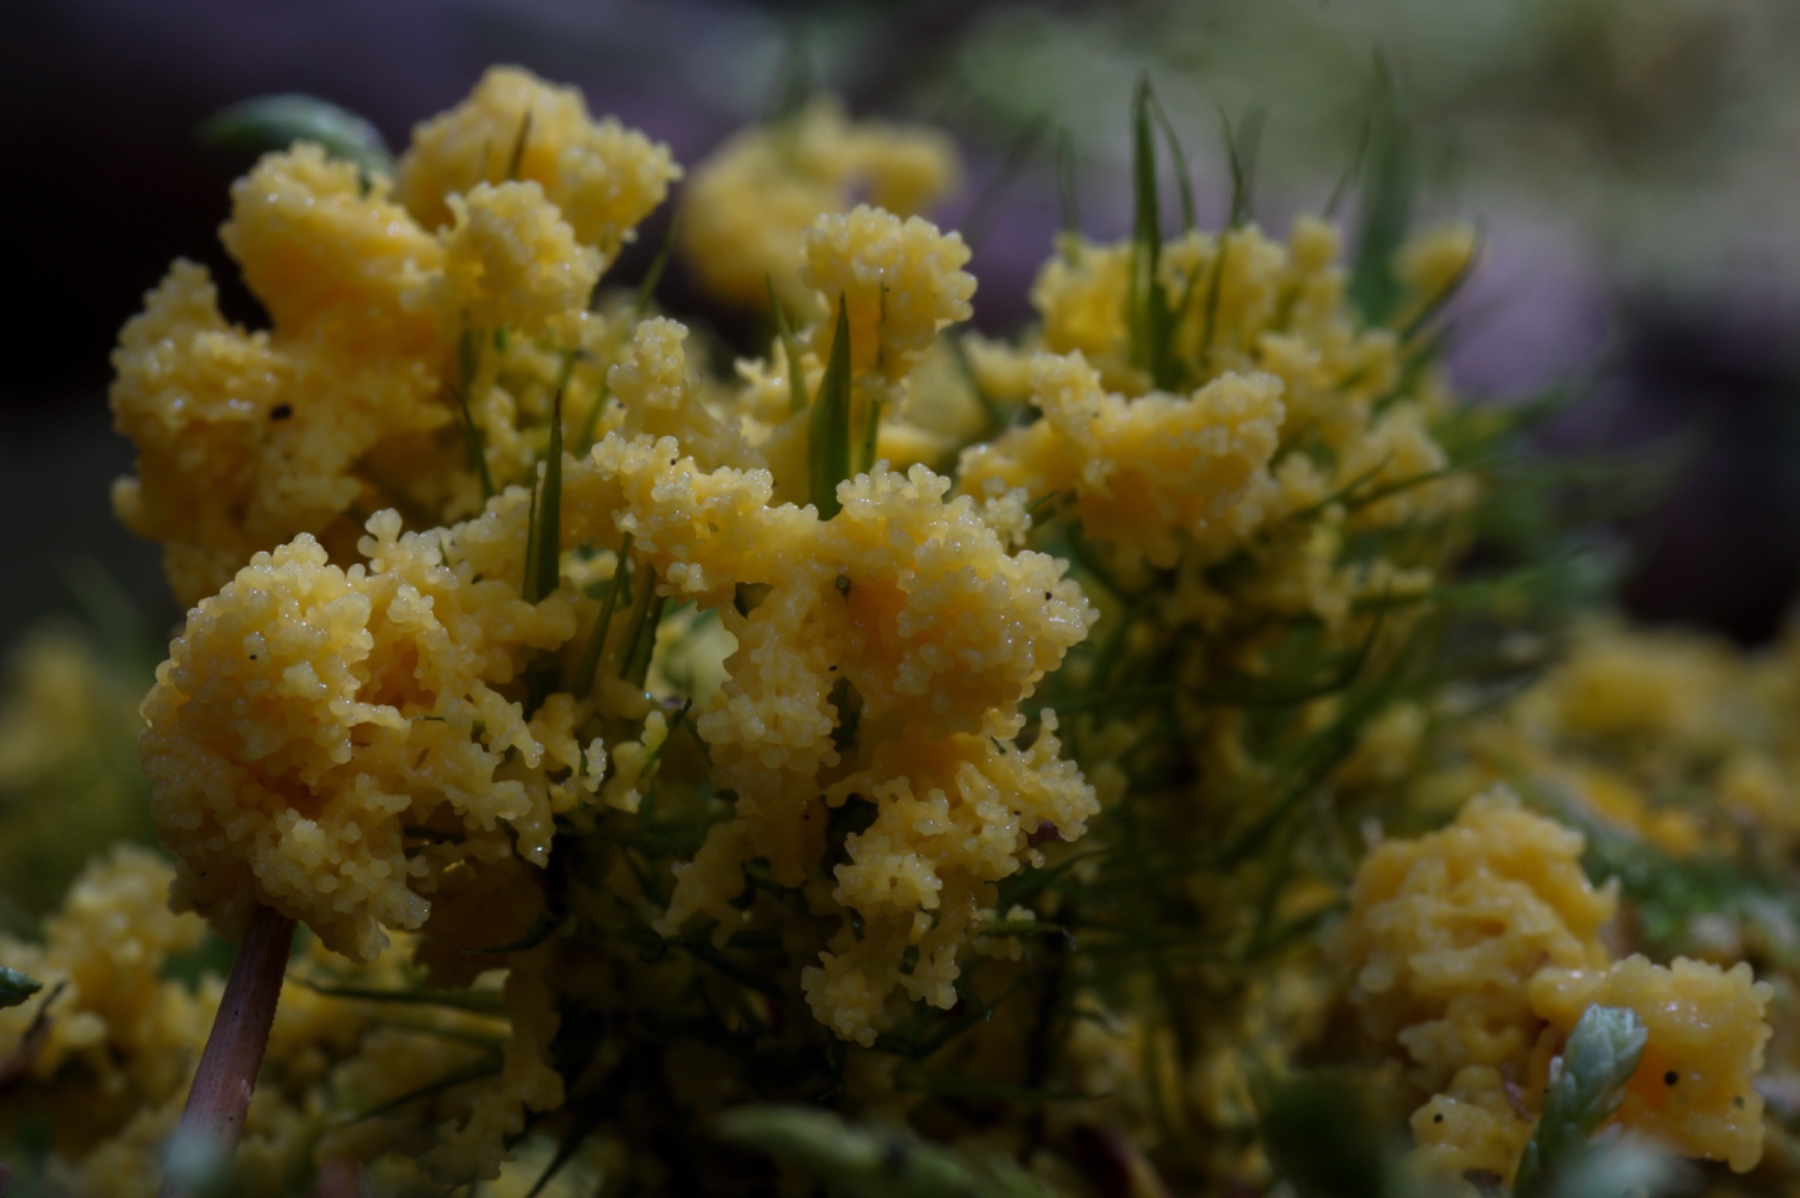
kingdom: Protozoa
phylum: Mycetozoa
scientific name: Mycetozoa
